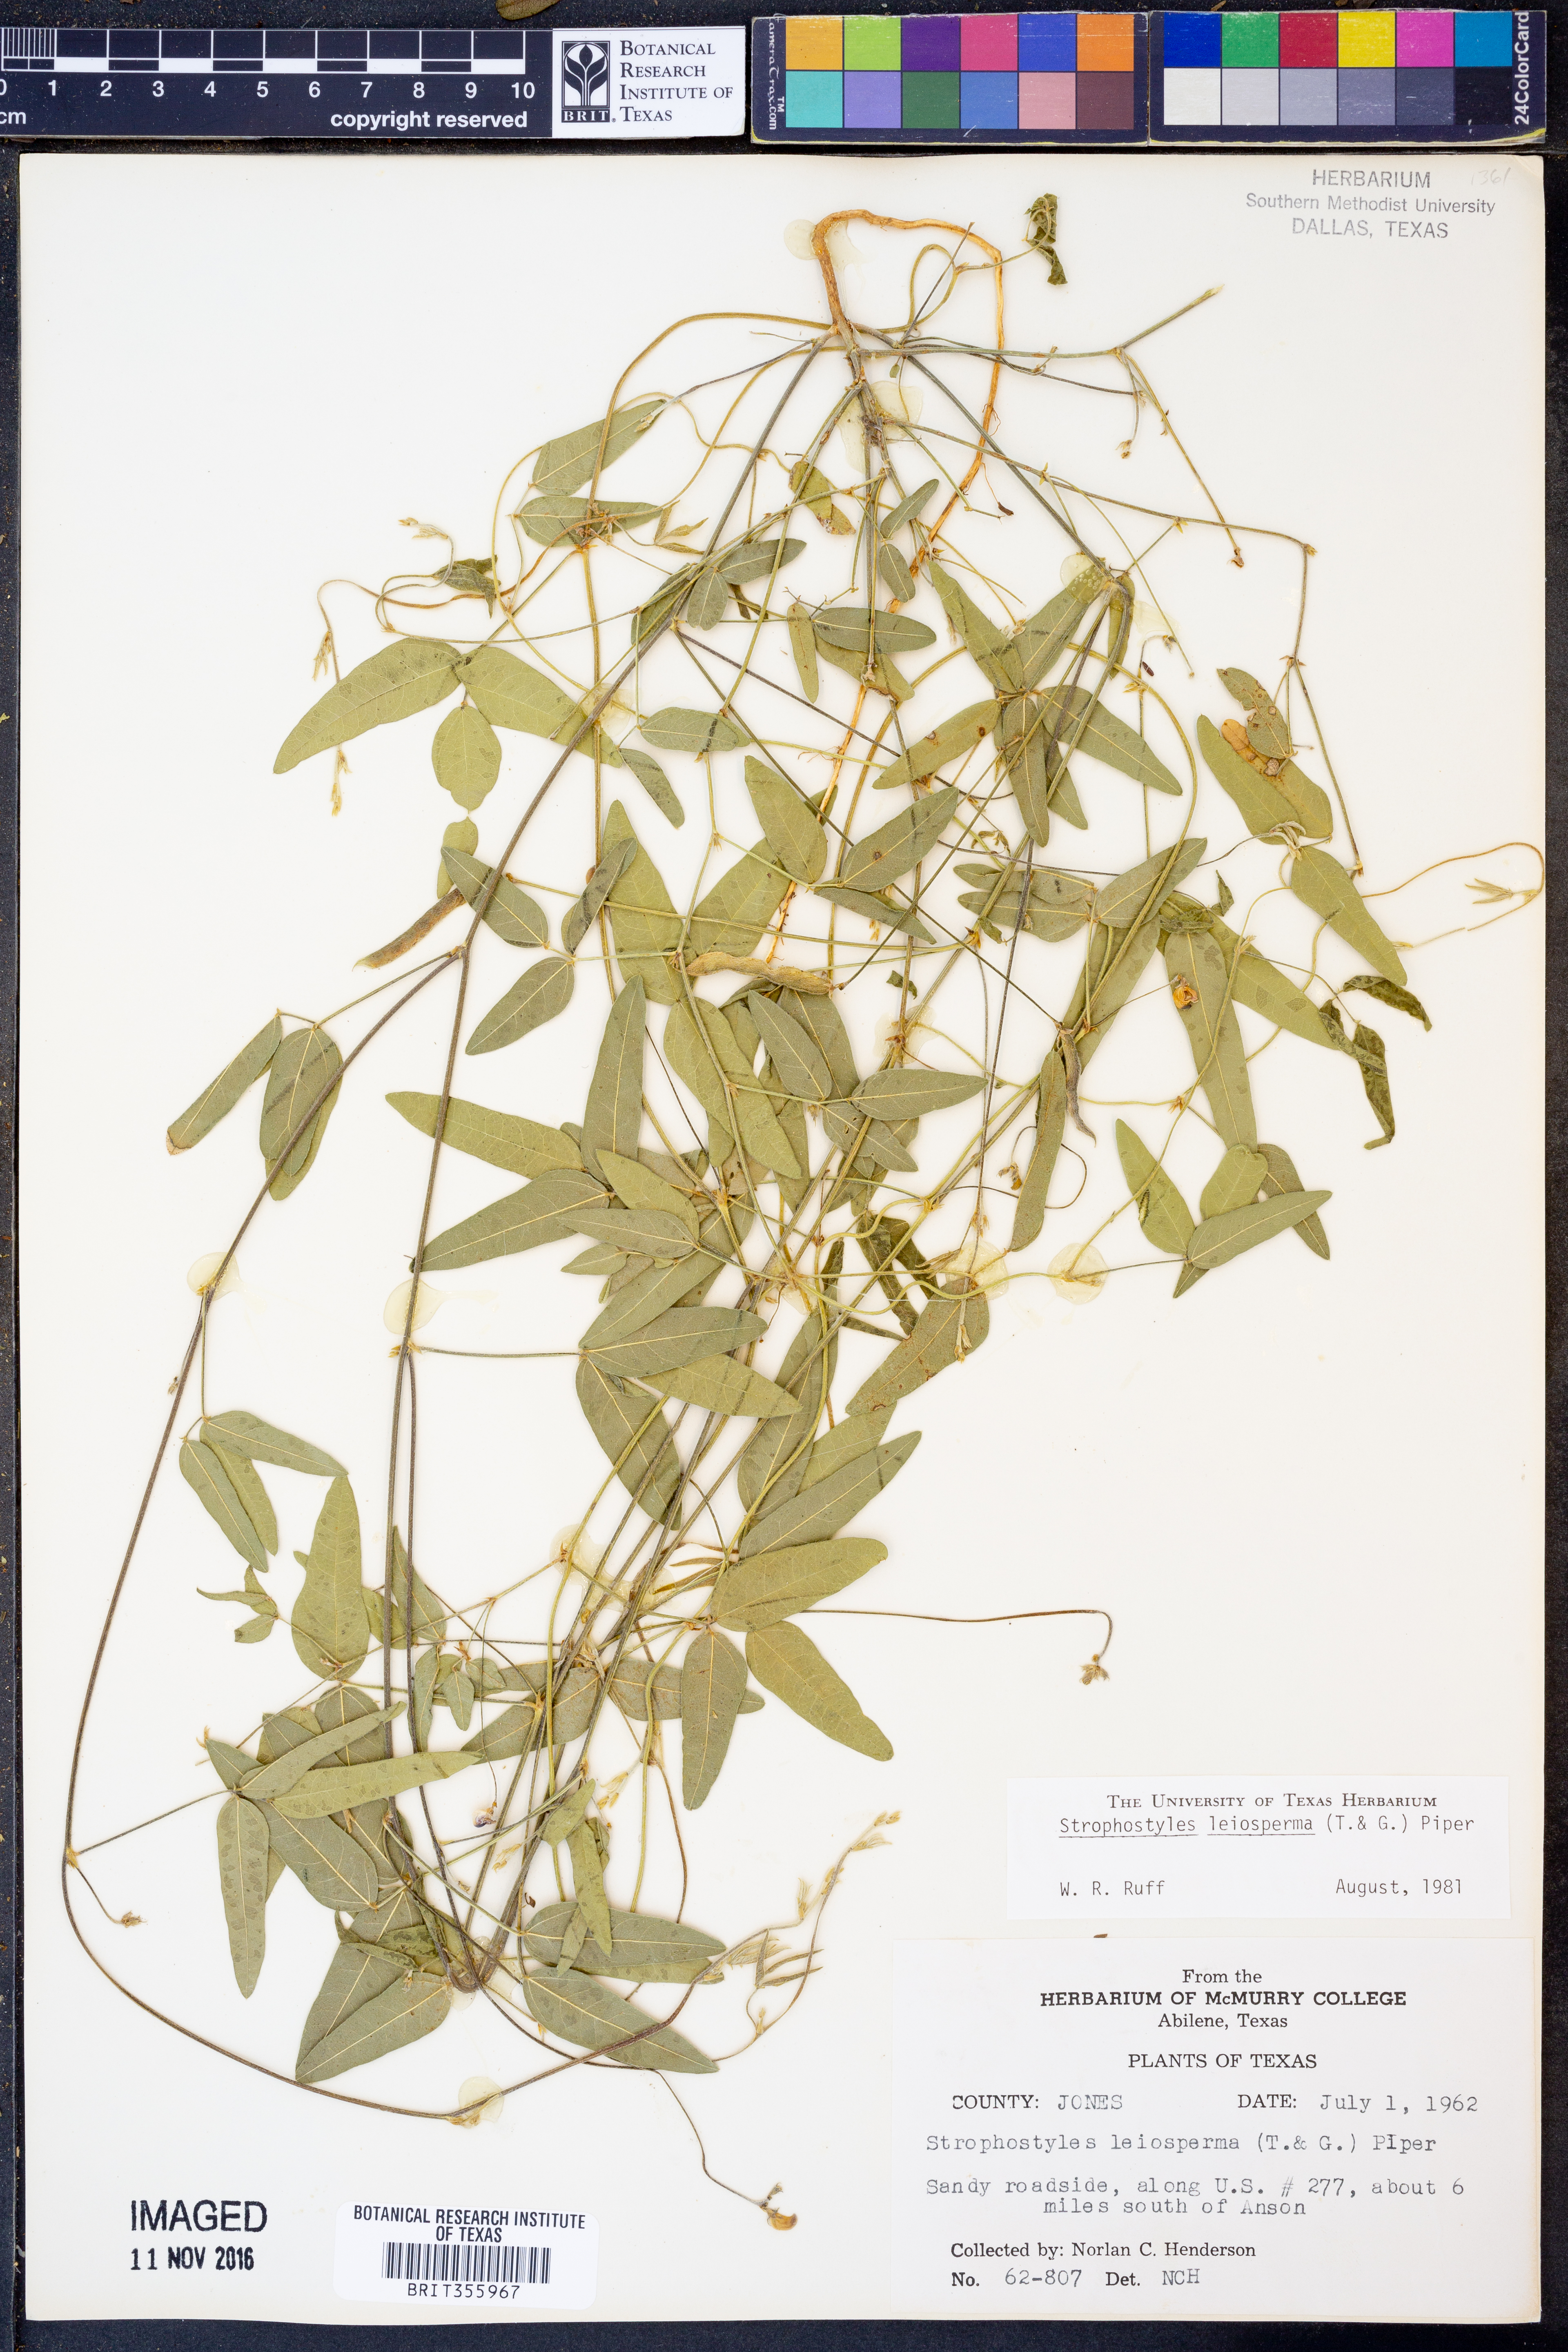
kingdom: Plantae
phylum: Tracheophyta
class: Magnoliopsida
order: Fabales
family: Fabaceae
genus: Strophostyles
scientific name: Strophostyles leiosperma
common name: Smooth-seed wild bean
